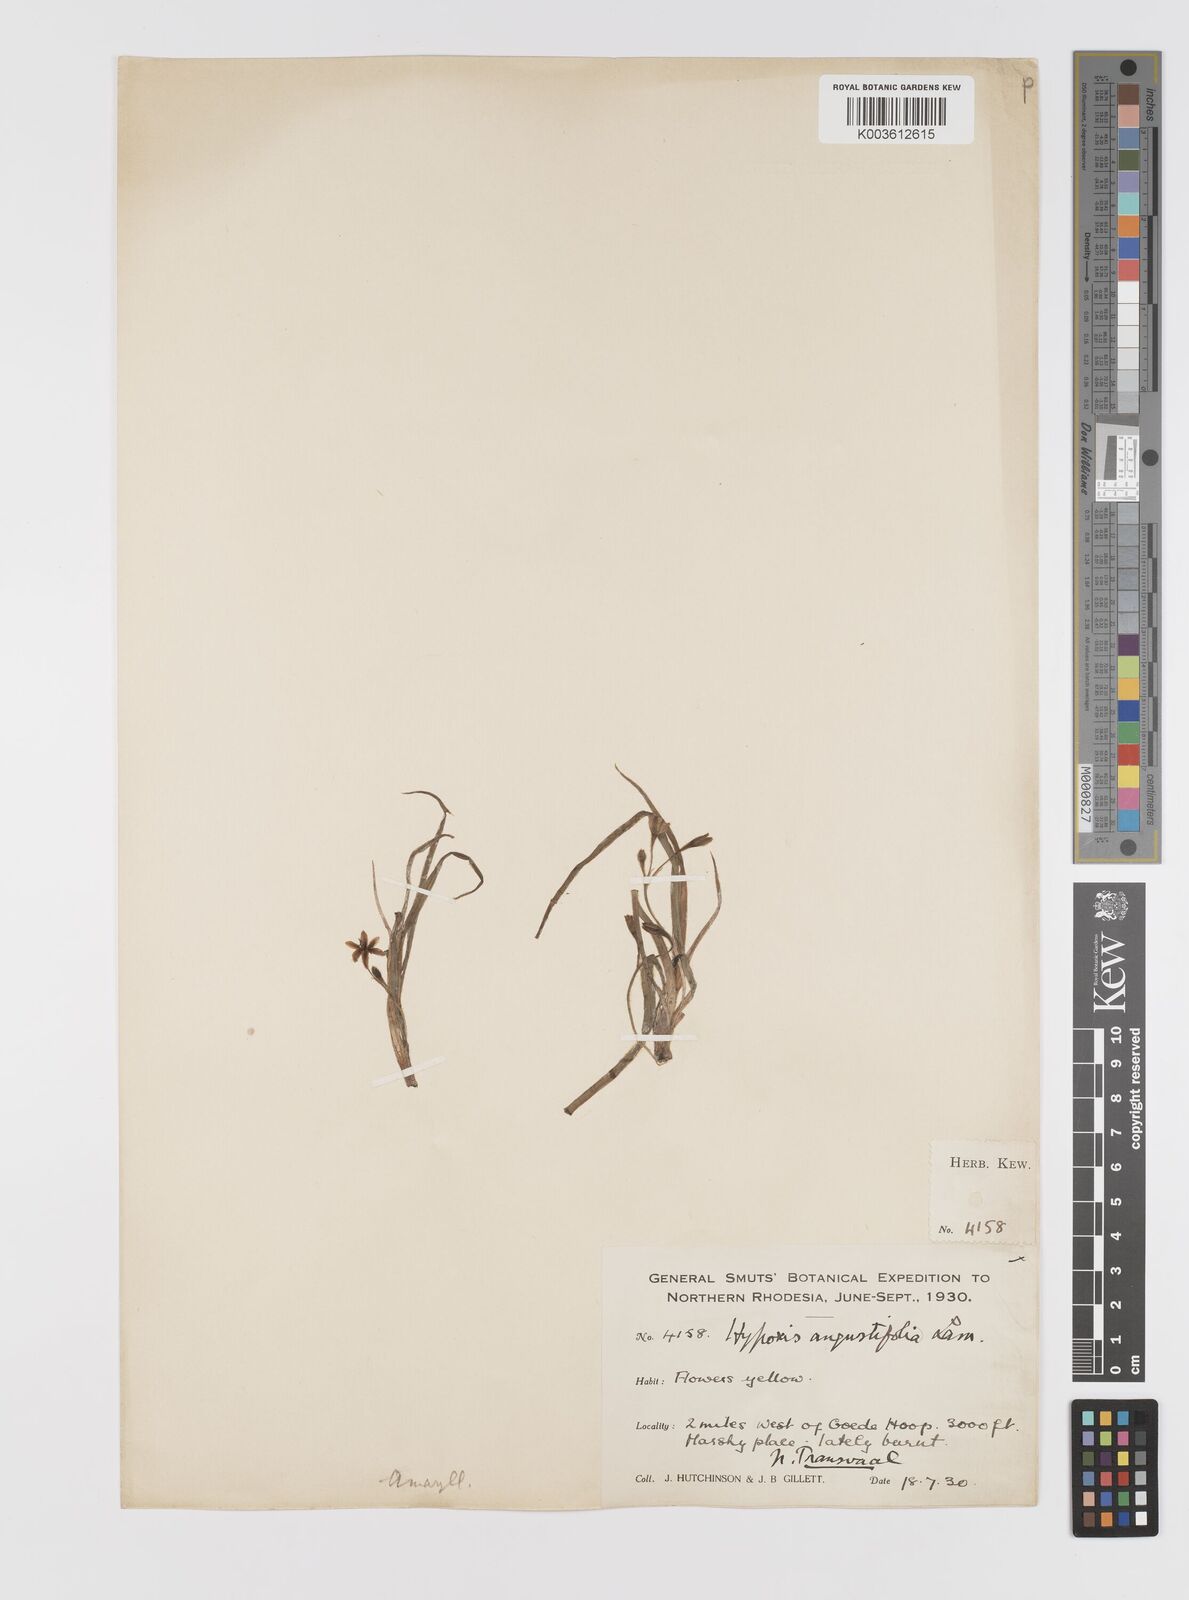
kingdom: Plantae
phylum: Tracheophyta
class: Liliopsida
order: Asparagales
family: Hypoxidaceae
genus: Hypoxis
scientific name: Hypoxis angustifolia
